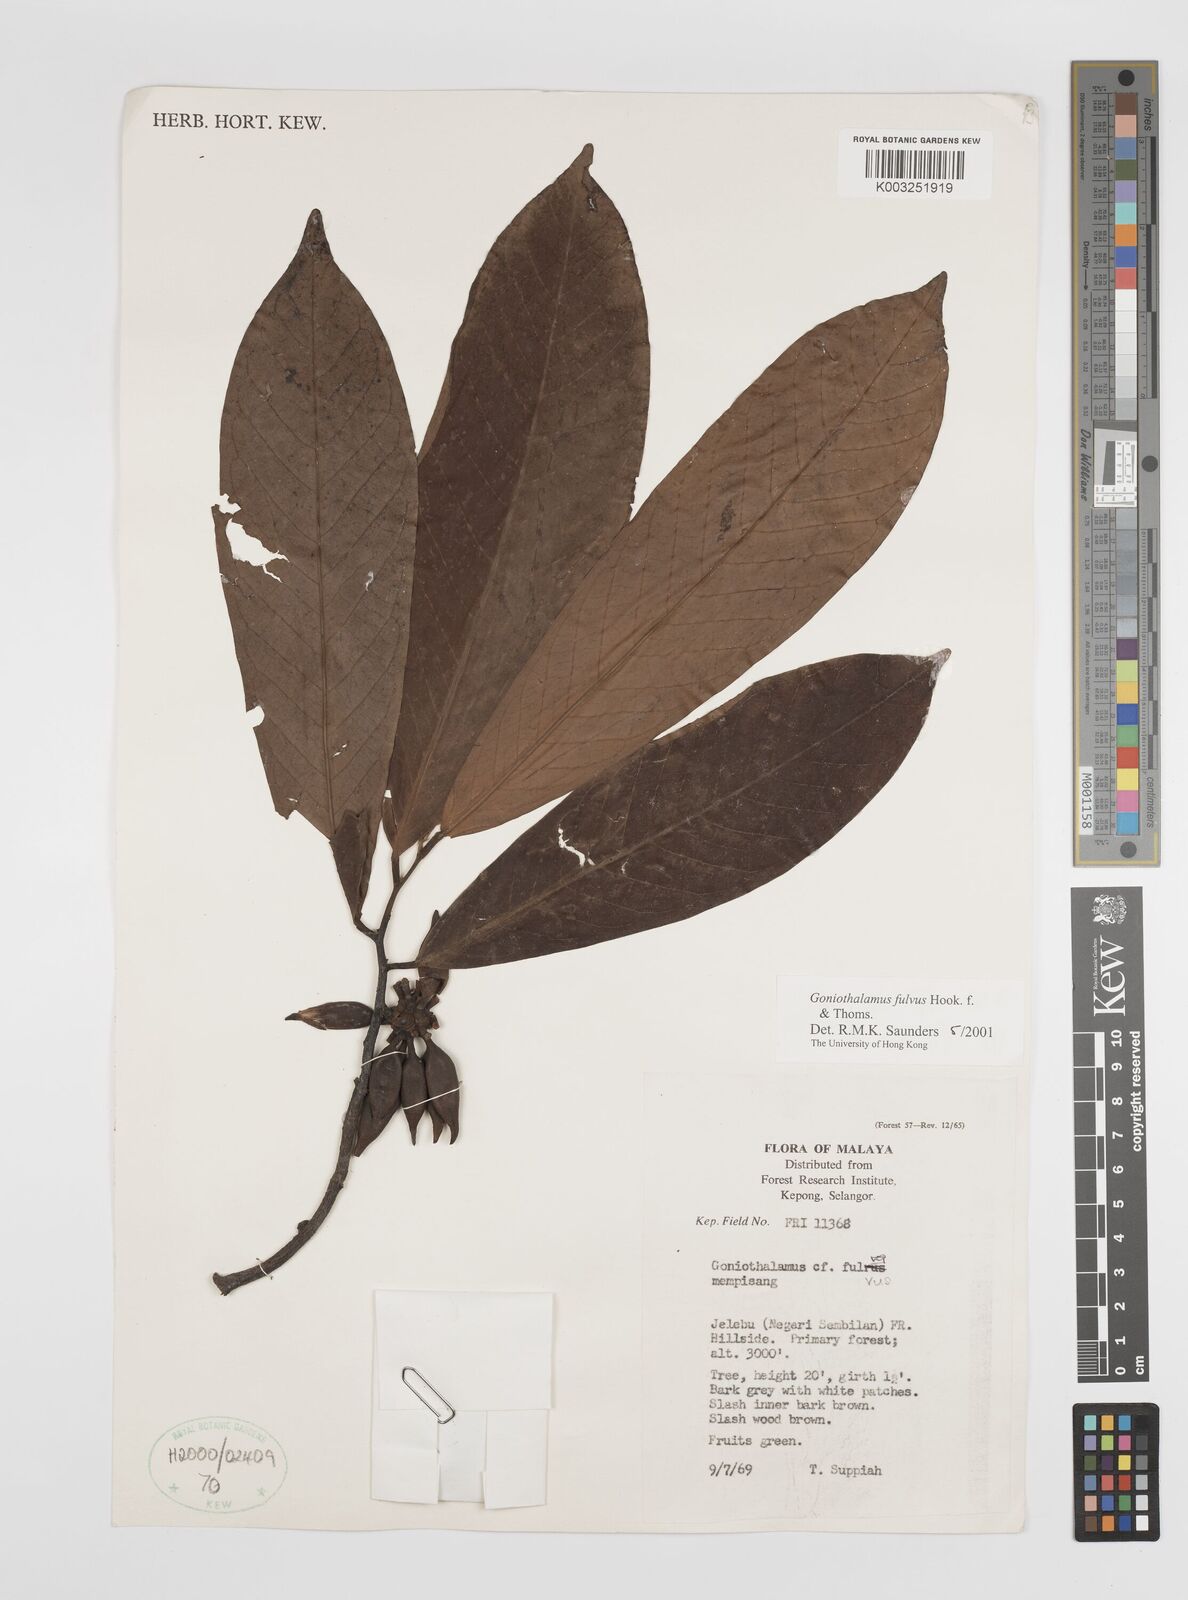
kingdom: Plantae
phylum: Tracheophyta
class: Magnoliopsida
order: Magnoliales
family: Annonaceae
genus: Goniothalamus
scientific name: Goniothalamus fulvus
